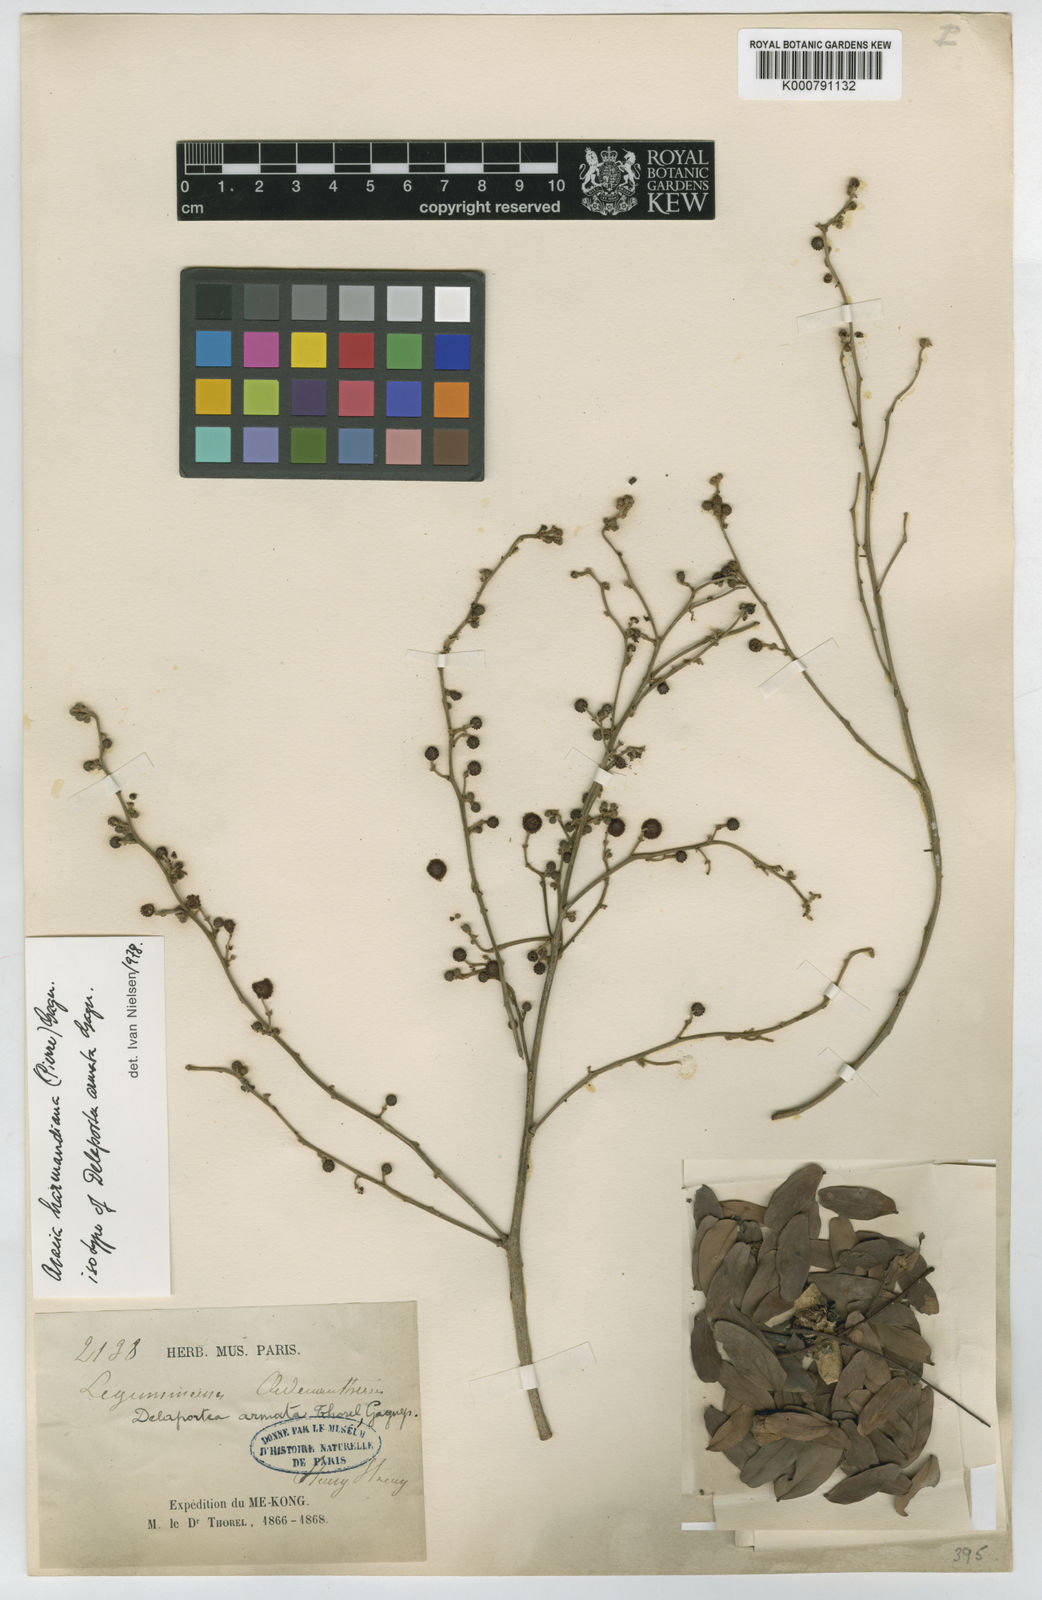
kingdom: Plantae
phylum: Tracheophyta
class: Magnoliopsida
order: Fabales
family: Fabaceae
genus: Vachellia
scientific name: Vachellia harmandiana
